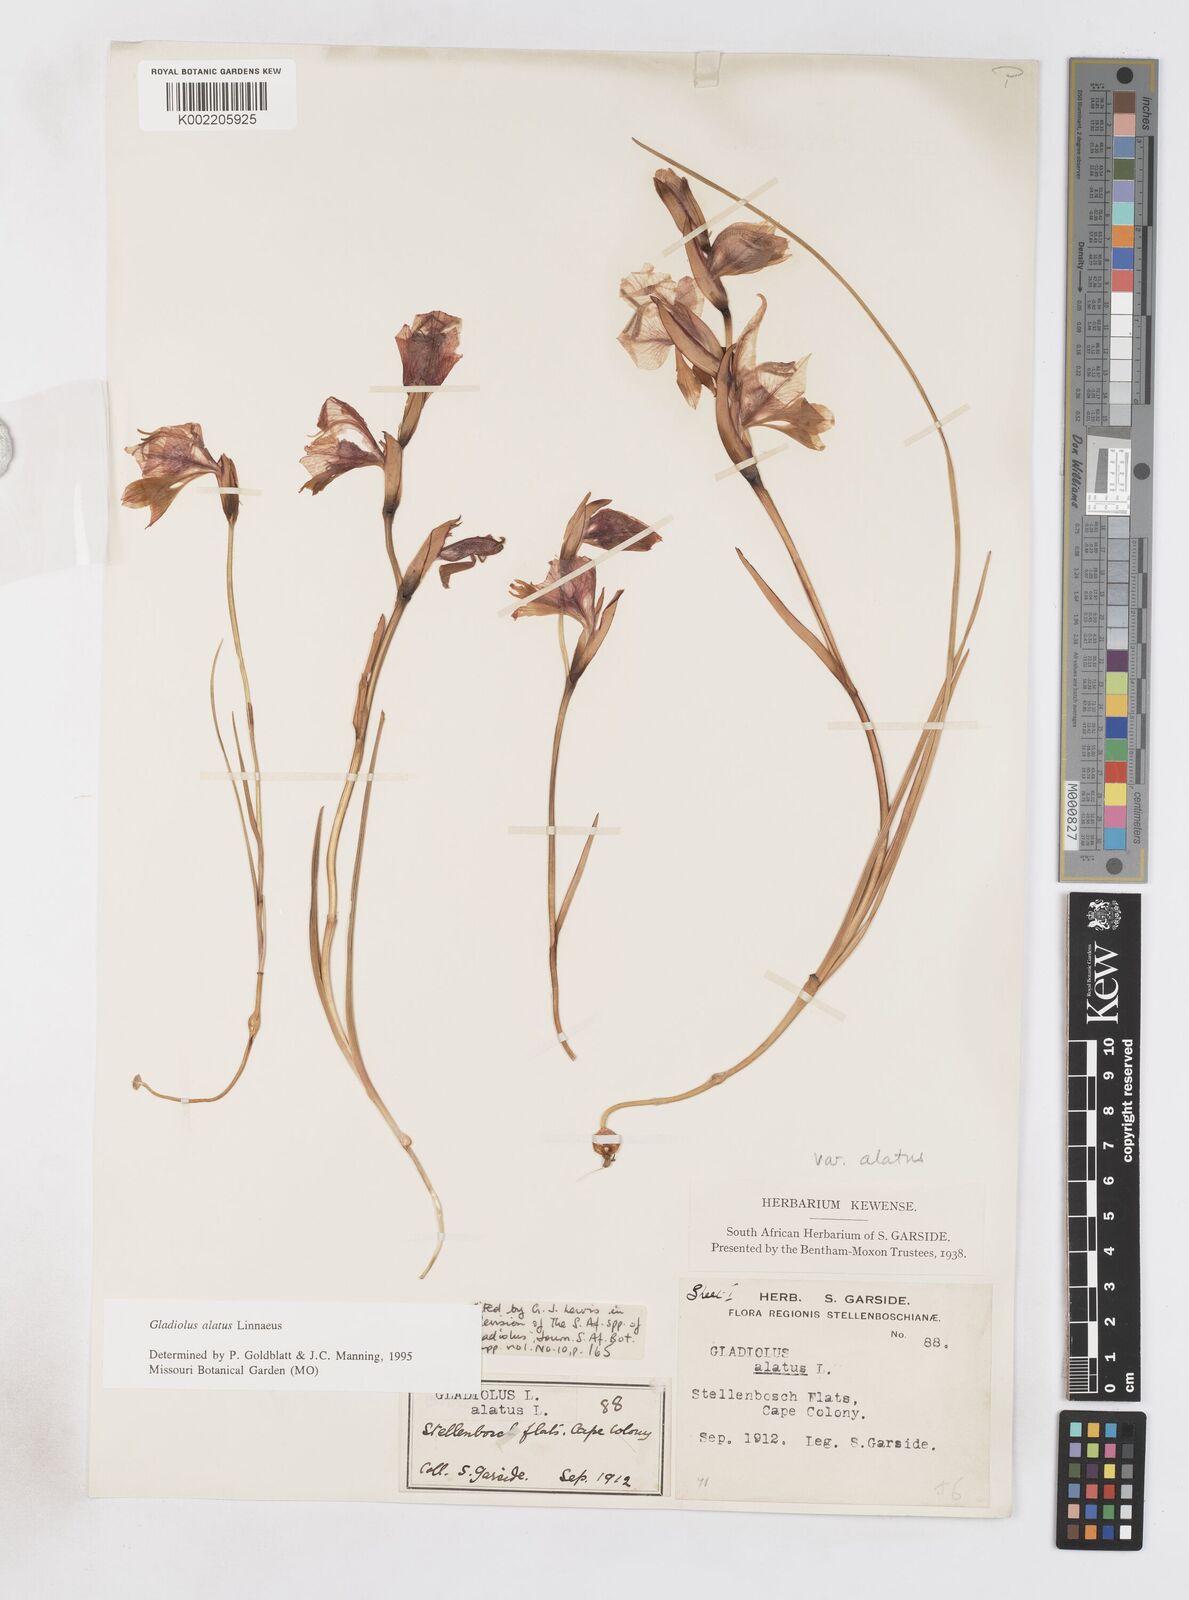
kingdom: Plantae
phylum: Tracheophyta
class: Liliopsida
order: Asparagales
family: Iridaceae
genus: Gladiolus
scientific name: Gladiolus alatus
